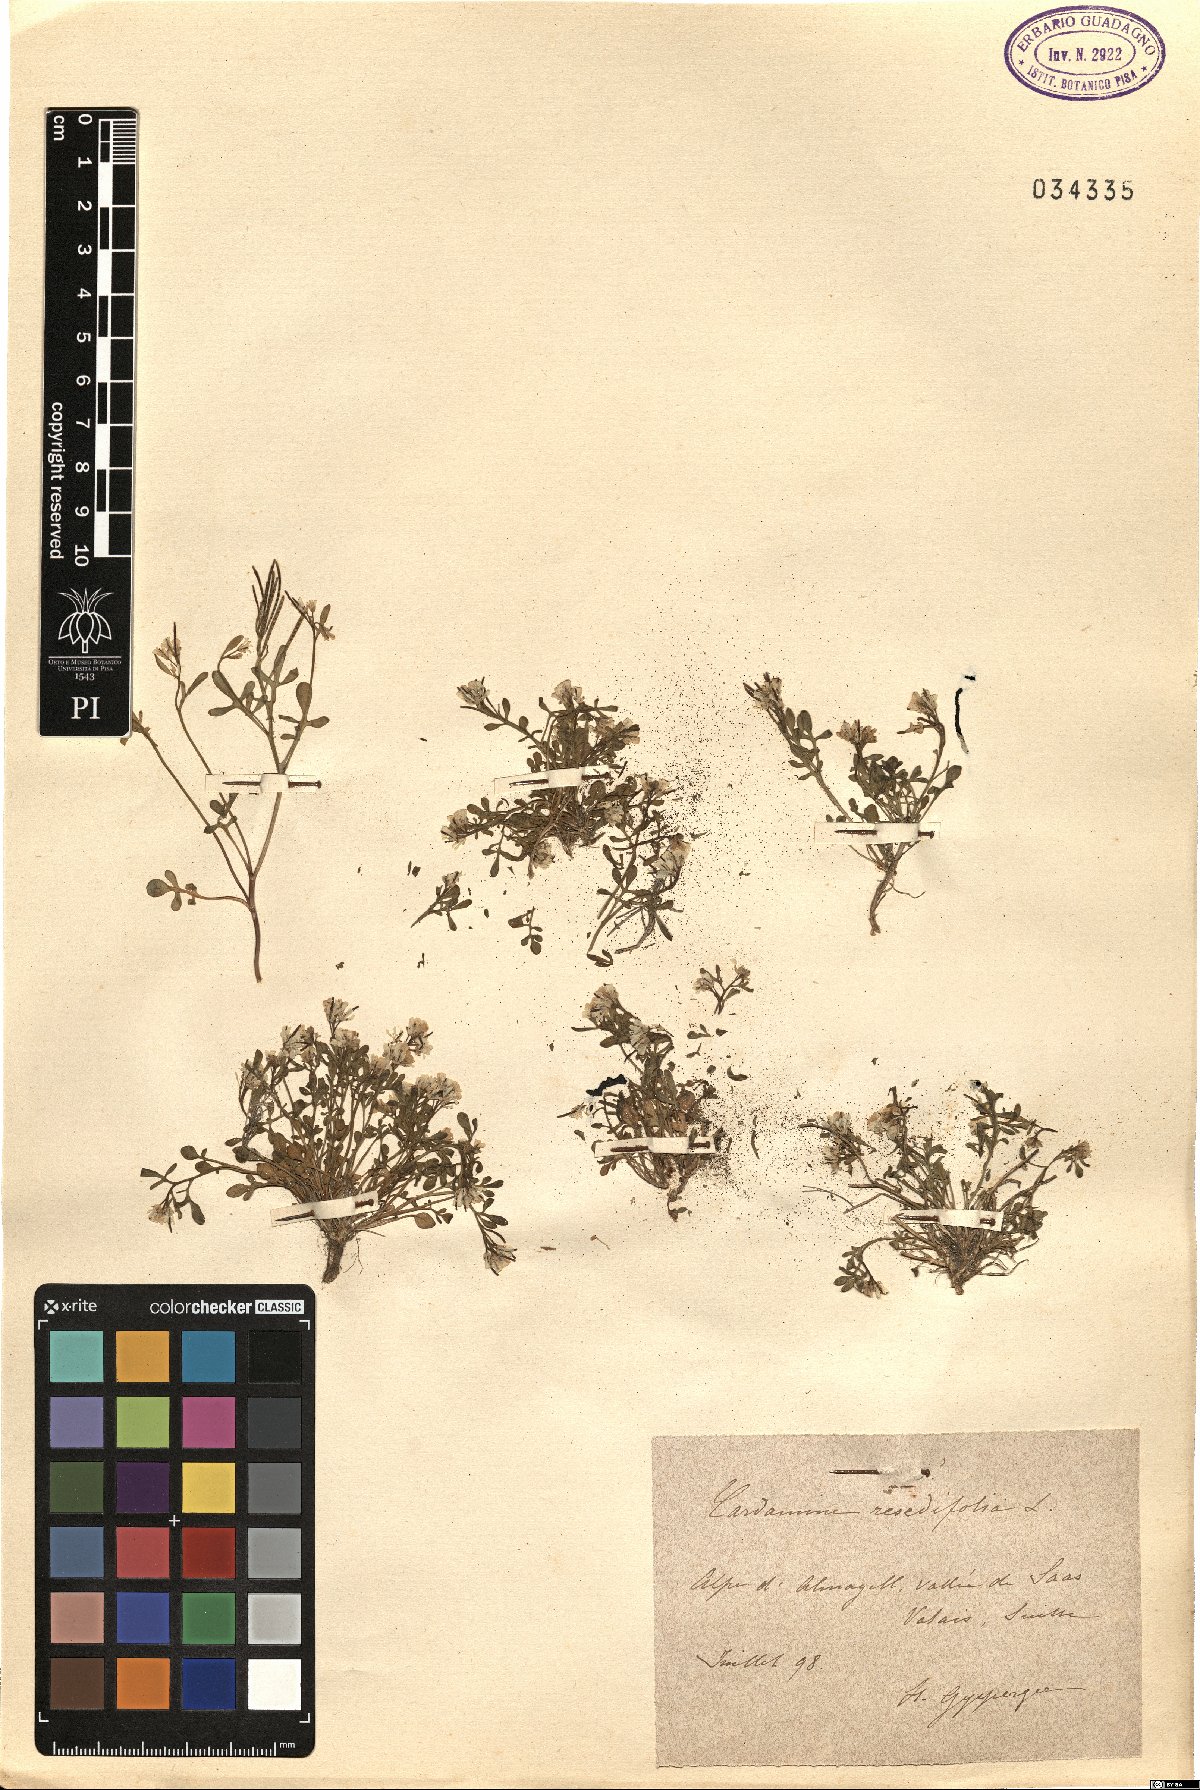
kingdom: Plantae
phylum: Tracheophyta
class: Magnoliopsida
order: Brassicales
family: Brassicaceae
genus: Cardamine
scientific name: Cardamine resedifolia
